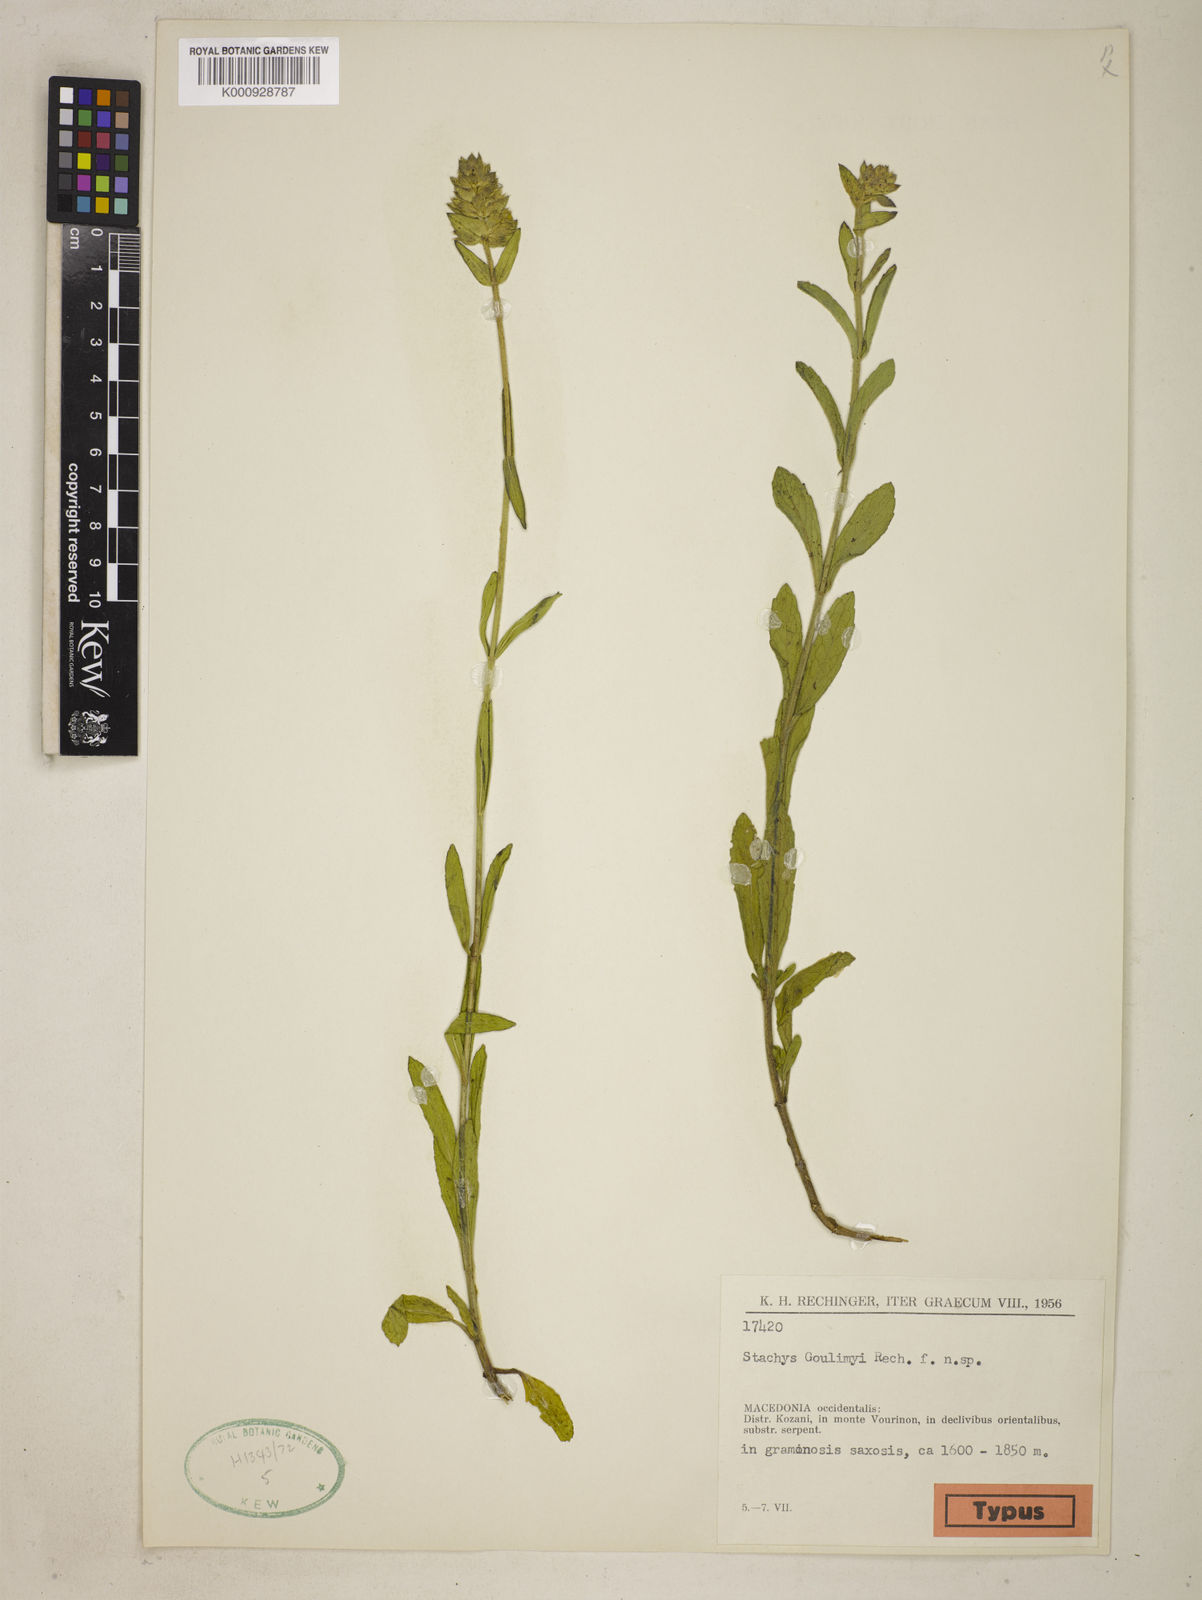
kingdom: Plantae
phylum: Tracheophyta
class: Magnoliopsida
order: Lamiales
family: Lamiaceae
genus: Stachys
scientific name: Stachys recta
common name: Perennial yellow-woundwort
